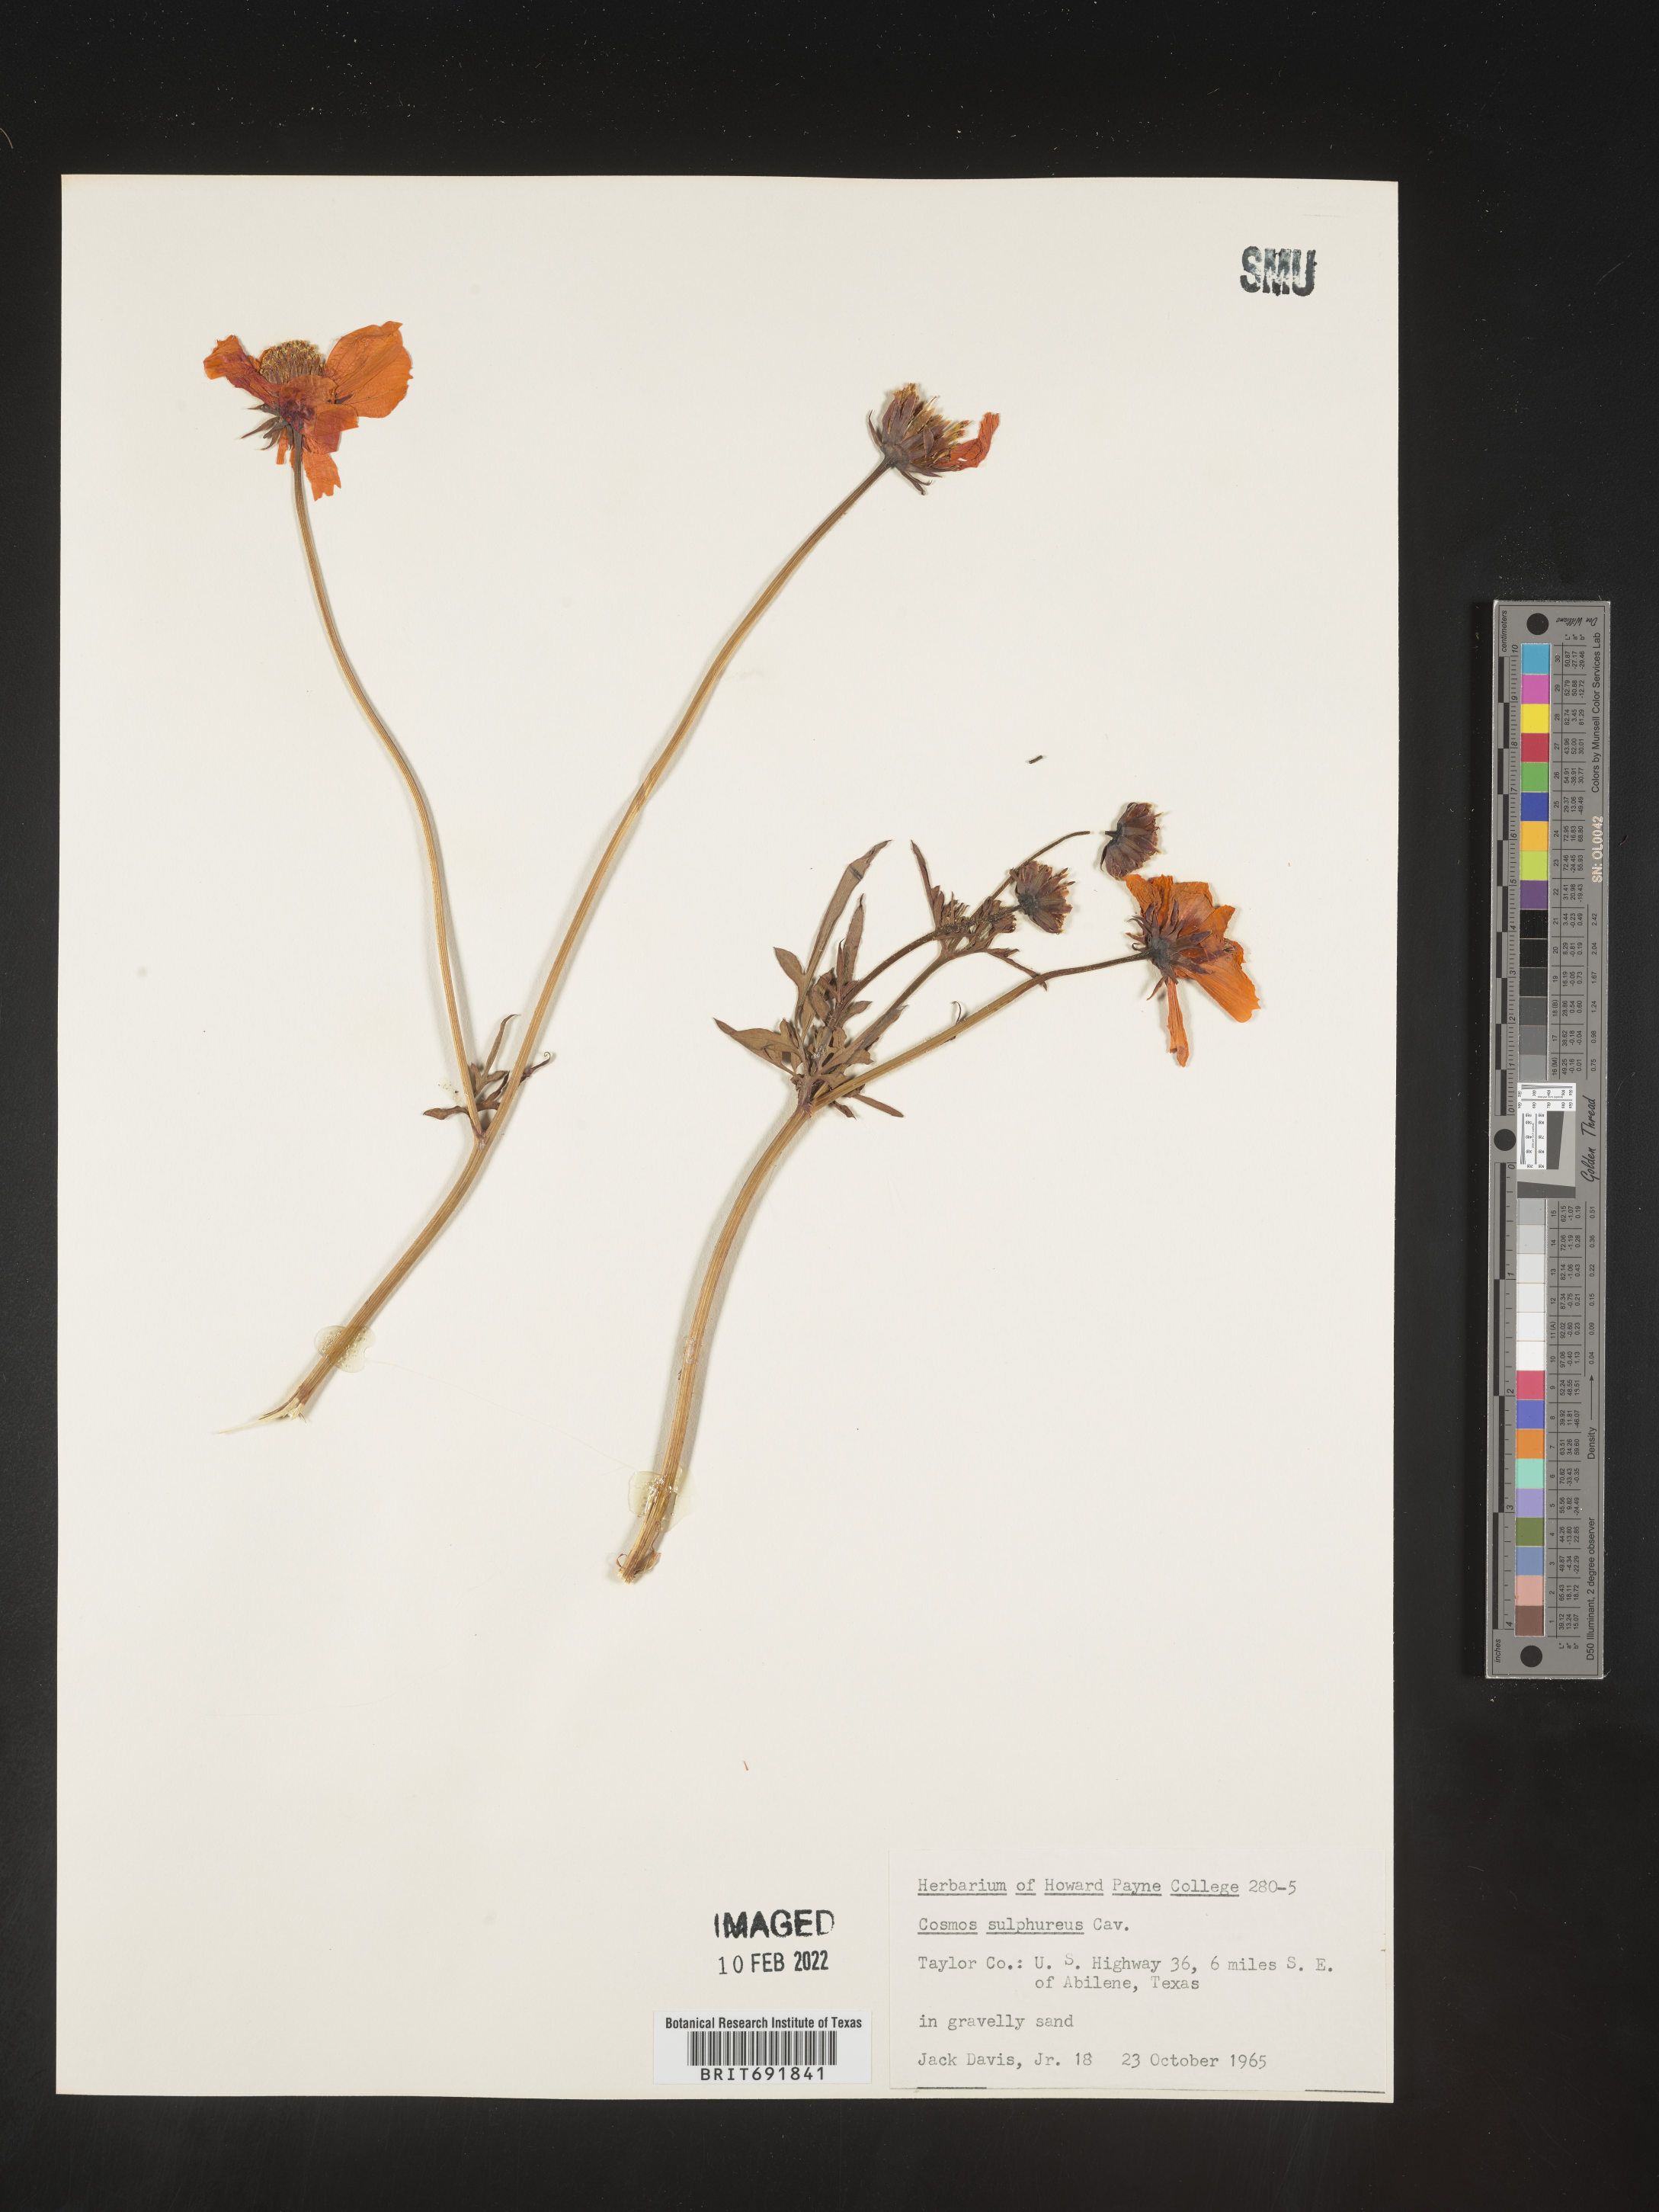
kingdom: Plantae
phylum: Tracheophyta
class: Magnoliopsida
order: Asterales
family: Asteraceae
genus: Cosmos
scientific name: Cosmos
